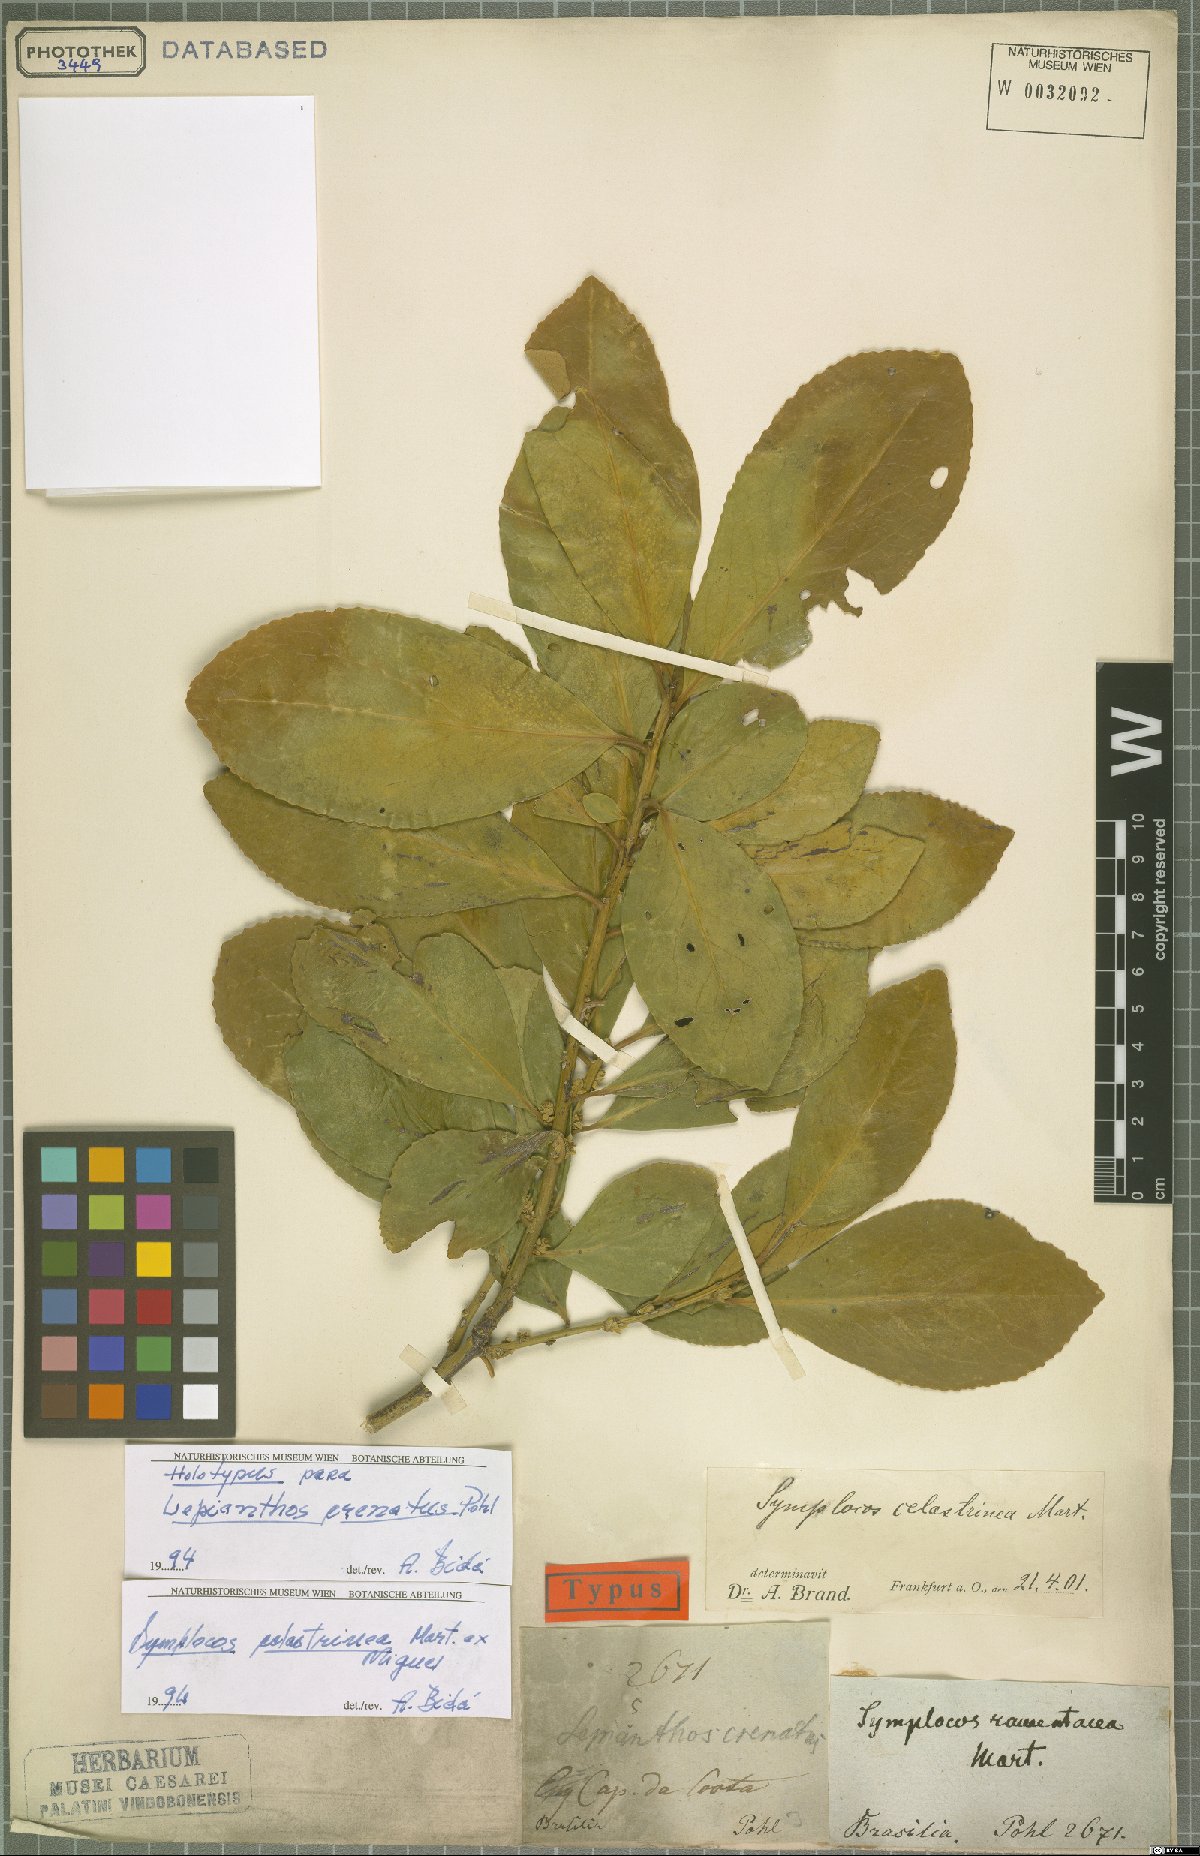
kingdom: Plantae
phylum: Tracheophyta
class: Magnoliopsida
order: Ericales
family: Symplocaceae
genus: Symplocos
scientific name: Symplocos celastrinea
